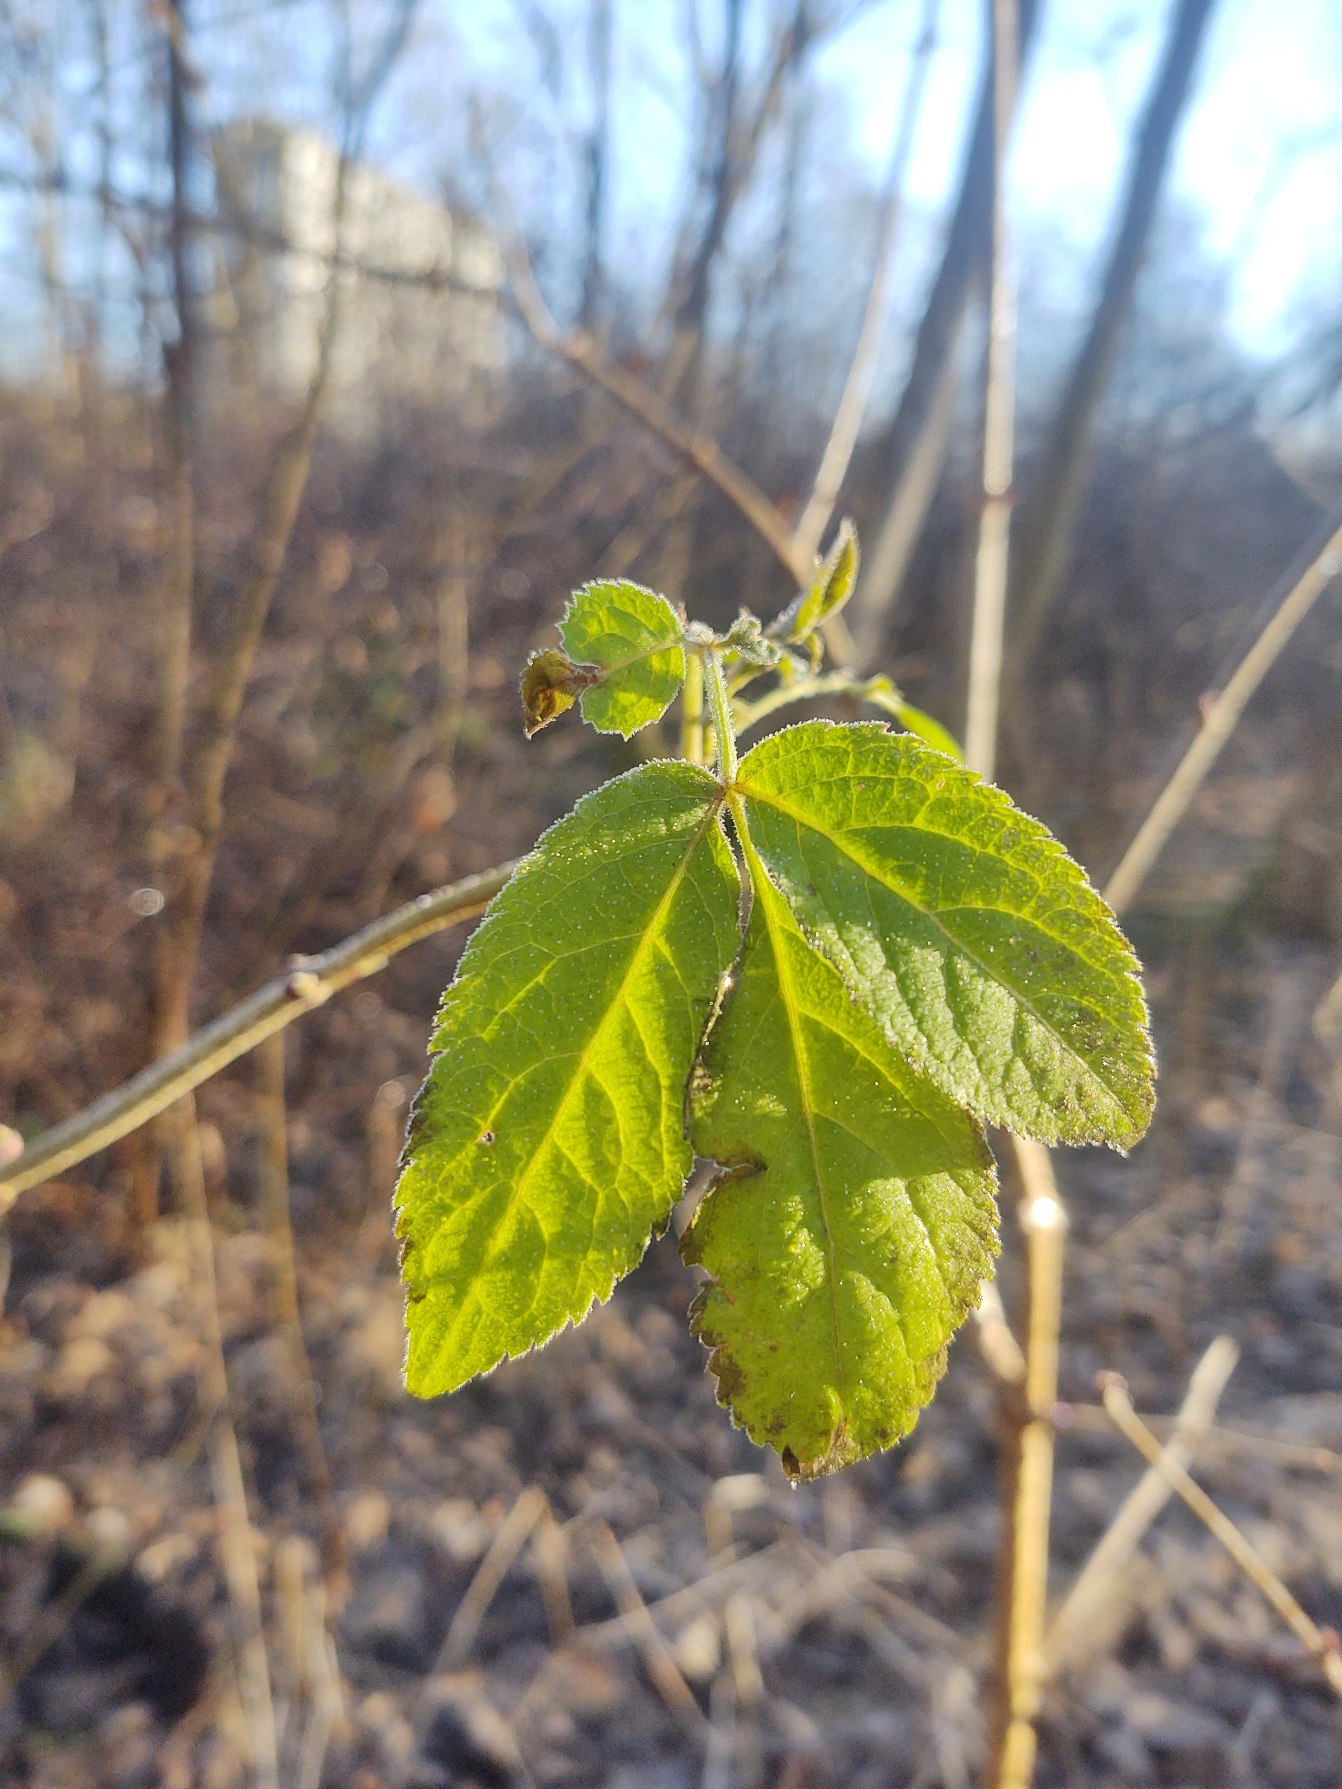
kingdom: Plantae
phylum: Tracheophyta
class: Magnoliopsida
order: Dipsacales
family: Viburnaceae
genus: Sambucus
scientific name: Sambucus nigra
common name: Almindelig hyld
